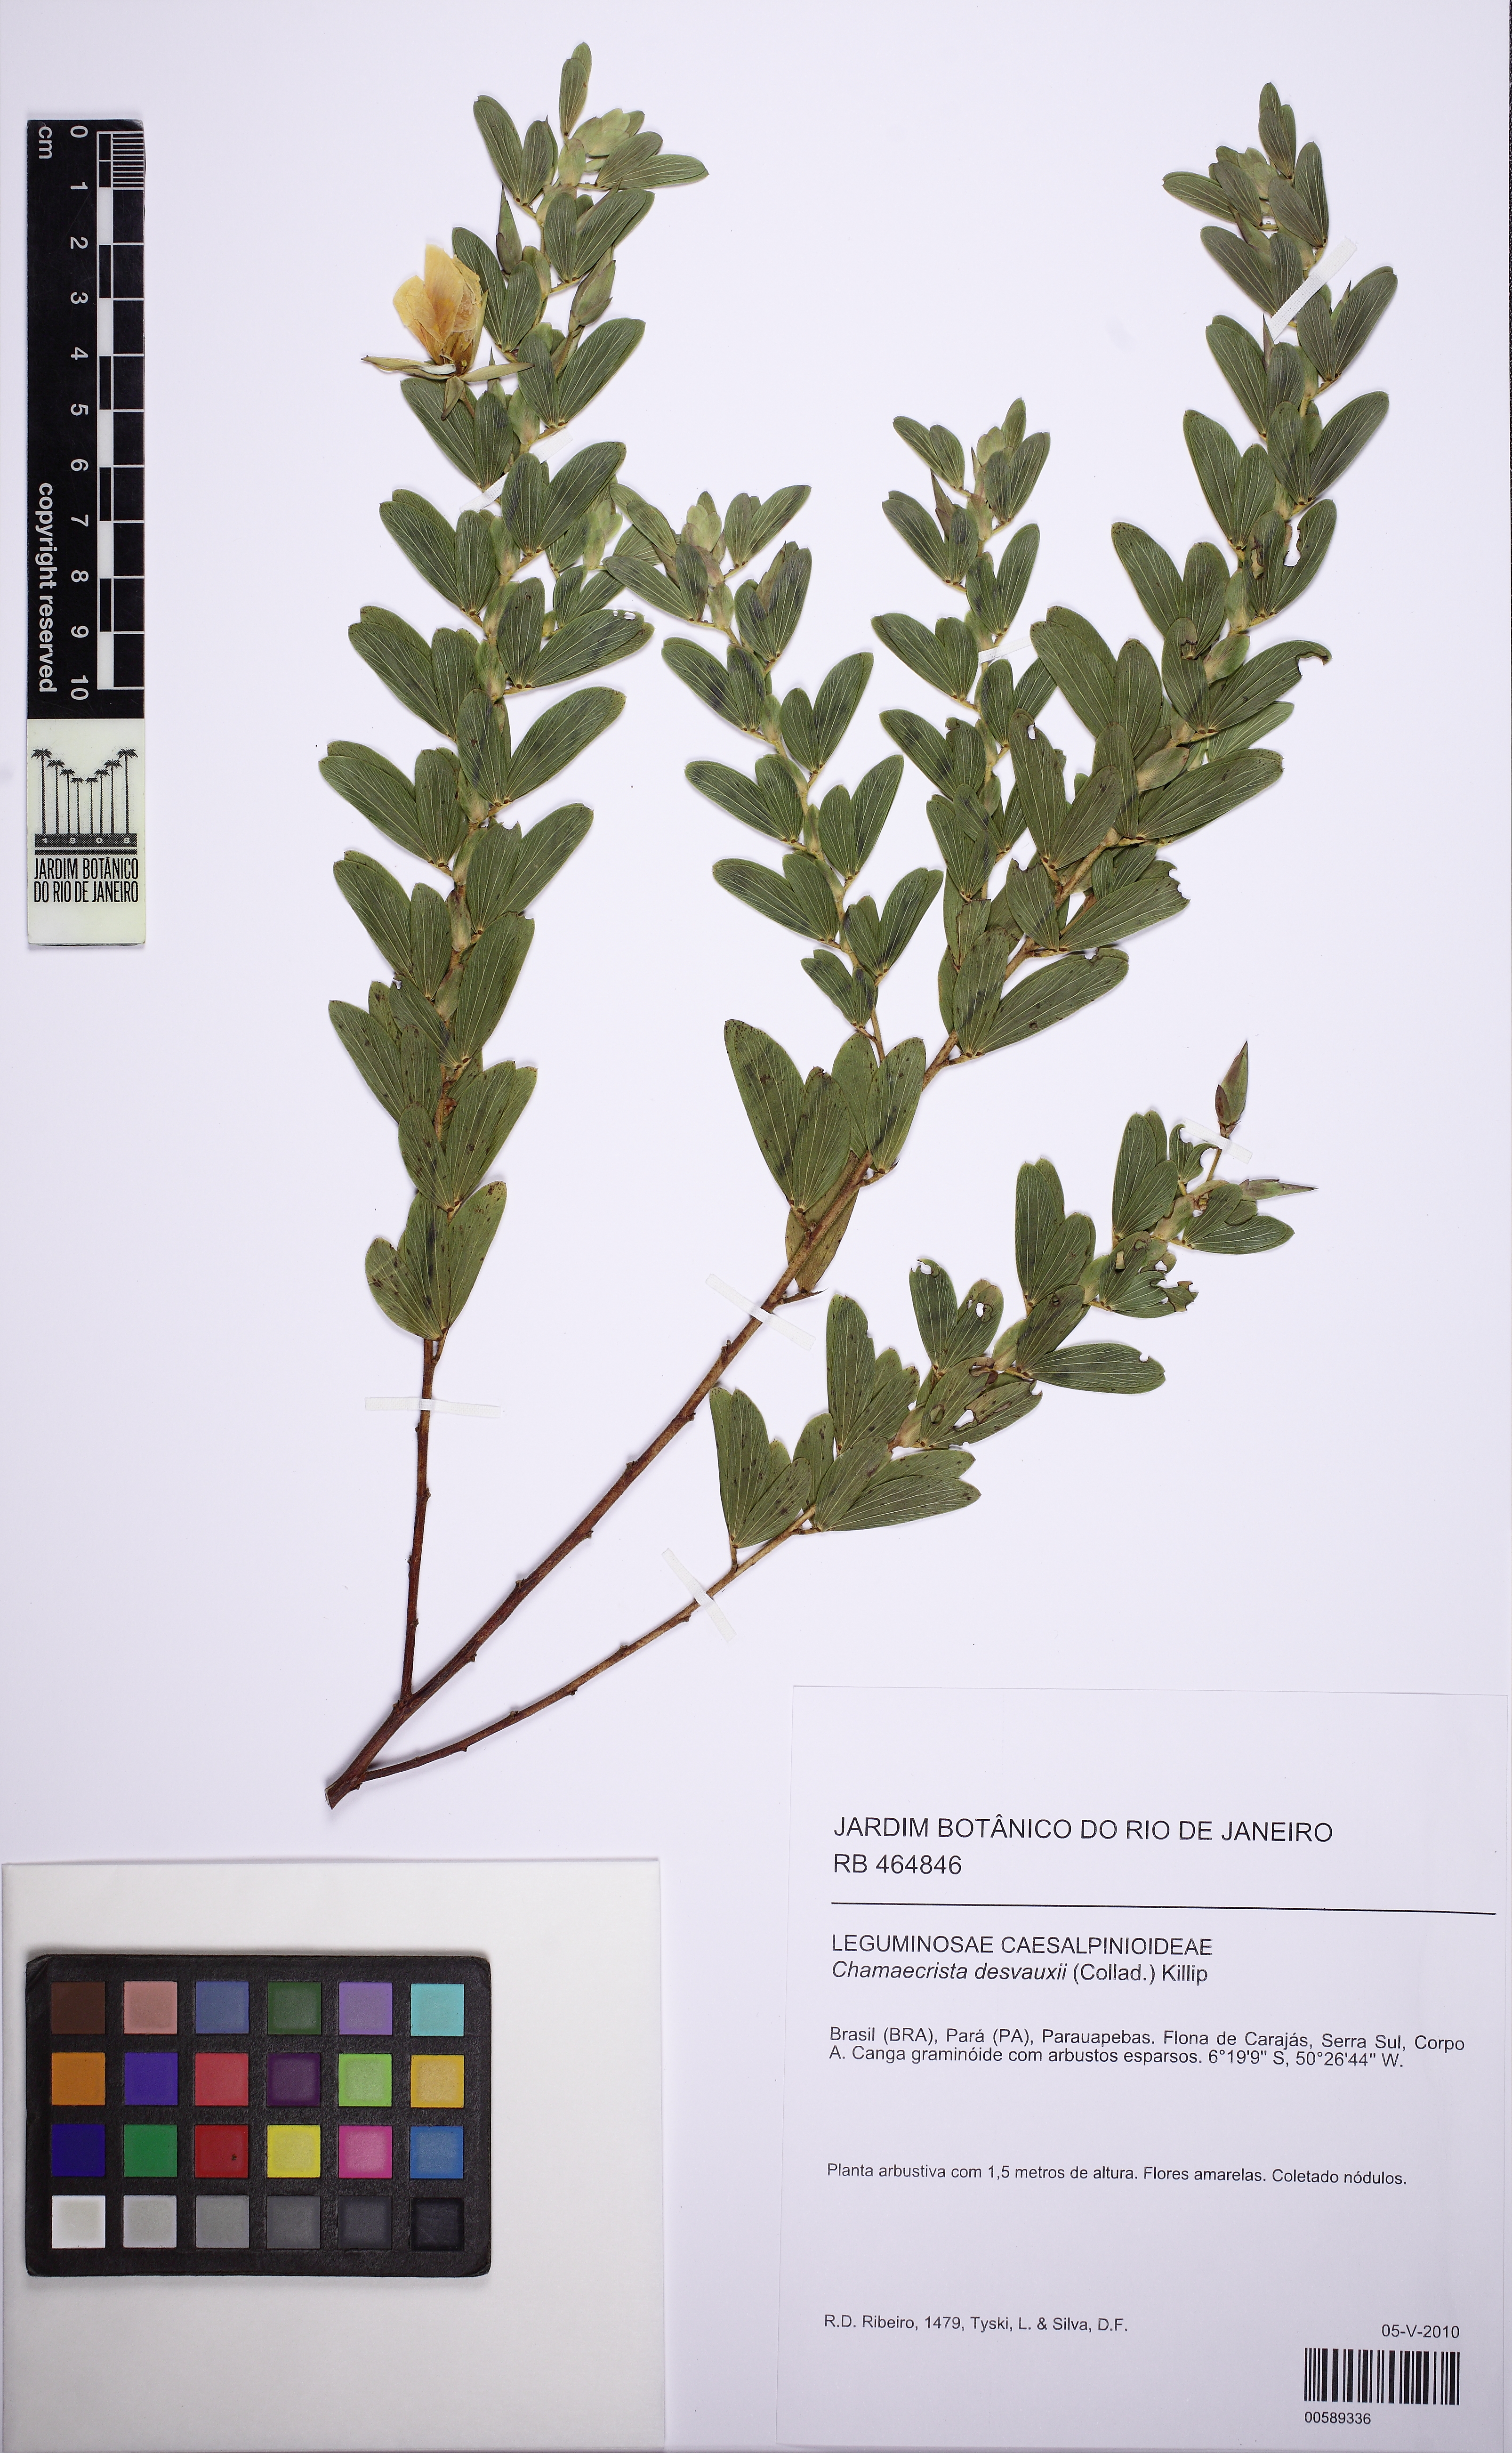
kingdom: Plantae
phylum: Tracheophyta
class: Magnoliopsida
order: Fabales
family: Fabaceae
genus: Chamaecrista
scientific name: Chamaecrista desvauxii
